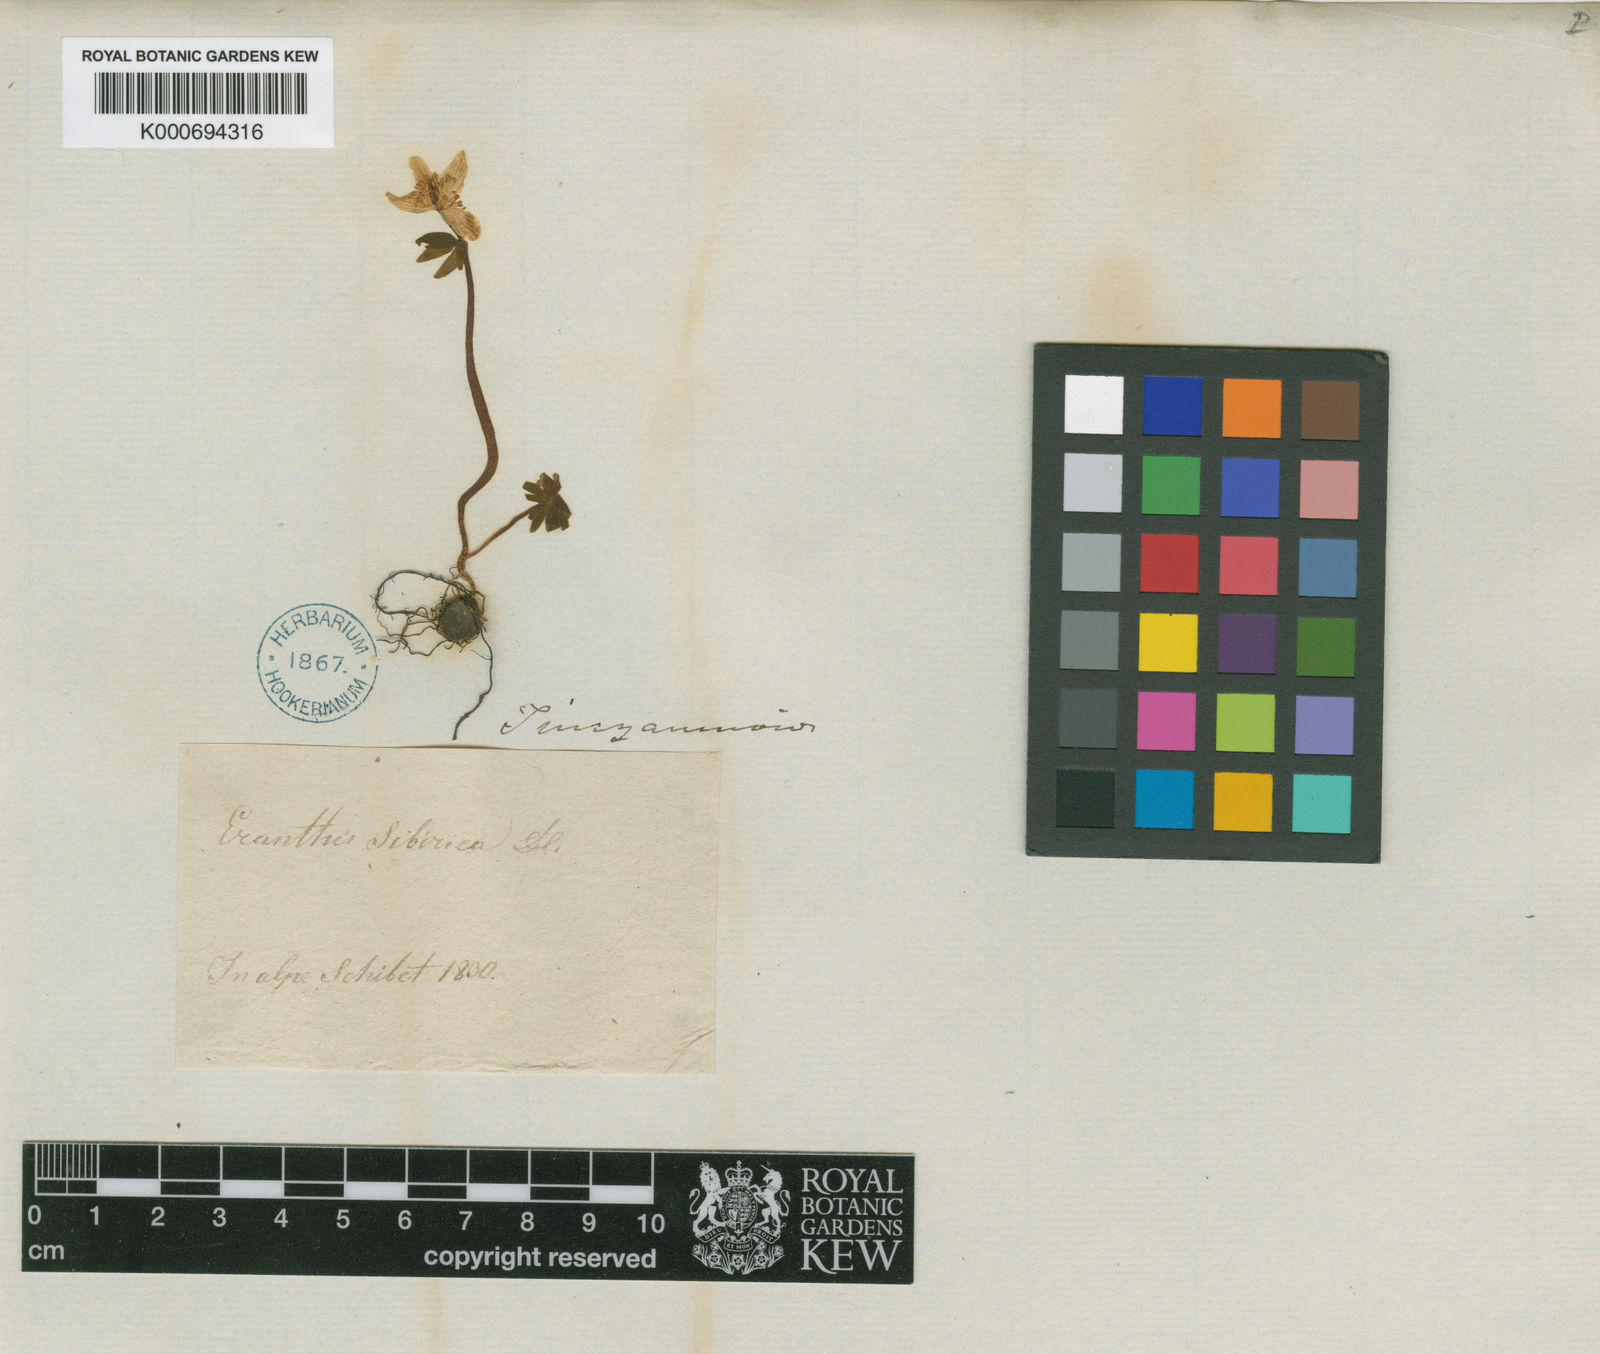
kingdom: Plantae
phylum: Tracheophyta
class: Magnoliopsida
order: Ranunculales
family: Ranunculaceae
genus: Eranthis
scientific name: Eranthis sibirica
